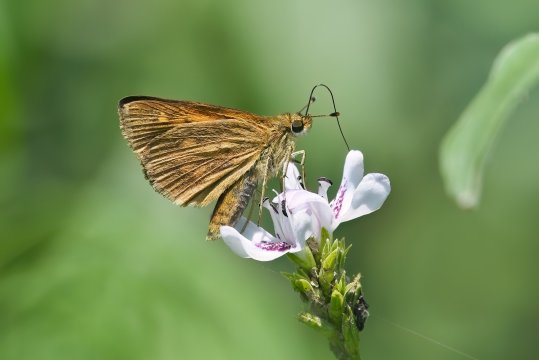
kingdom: Animalia
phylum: Arthropoda
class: Insecta
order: Lepidoptera
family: Hesperiidae
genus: Poanes
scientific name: Poanes viator
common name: Broad-winged Skipper
